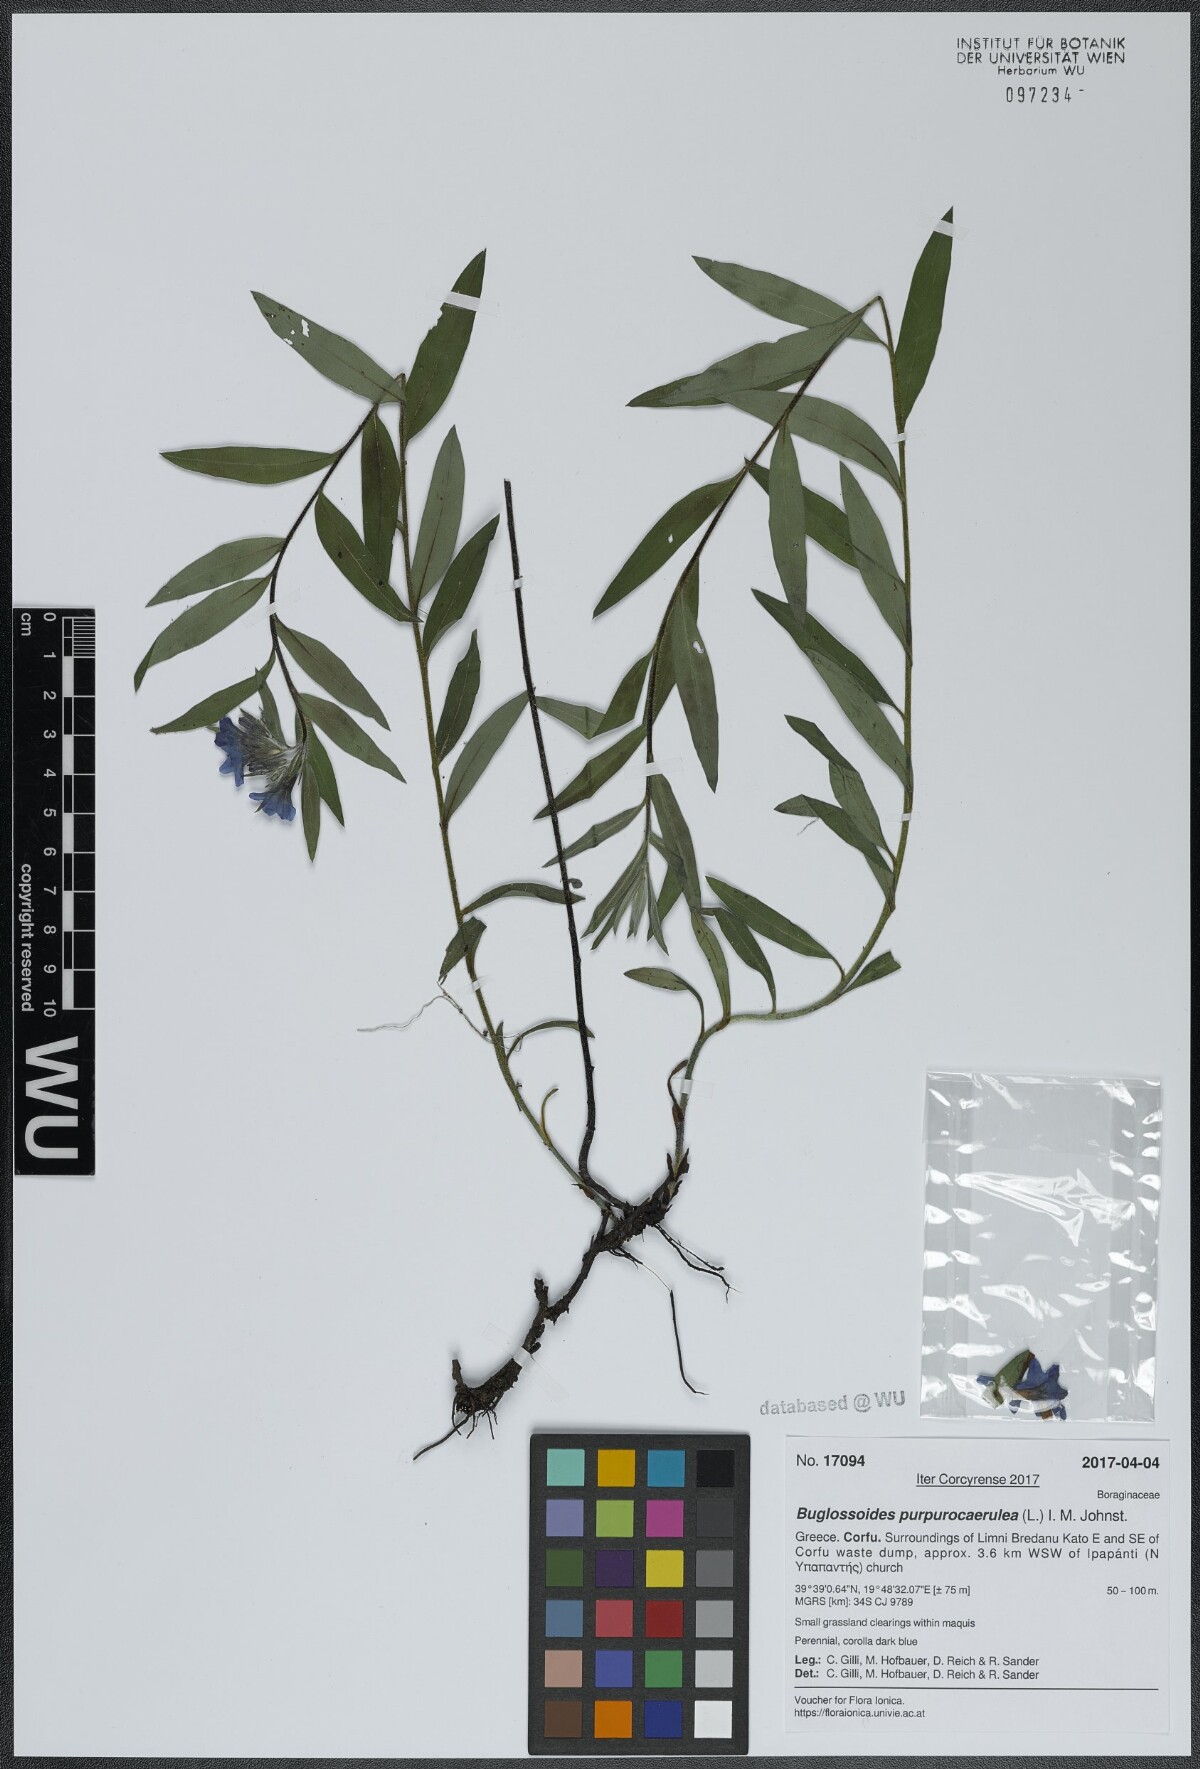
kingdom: Plantae
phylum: Tracheophyta
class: Magnoliopsida
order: Boraginales
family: Boraginaceae
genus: Aegonychon
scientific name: Aegonychon purpurocaeruleum
